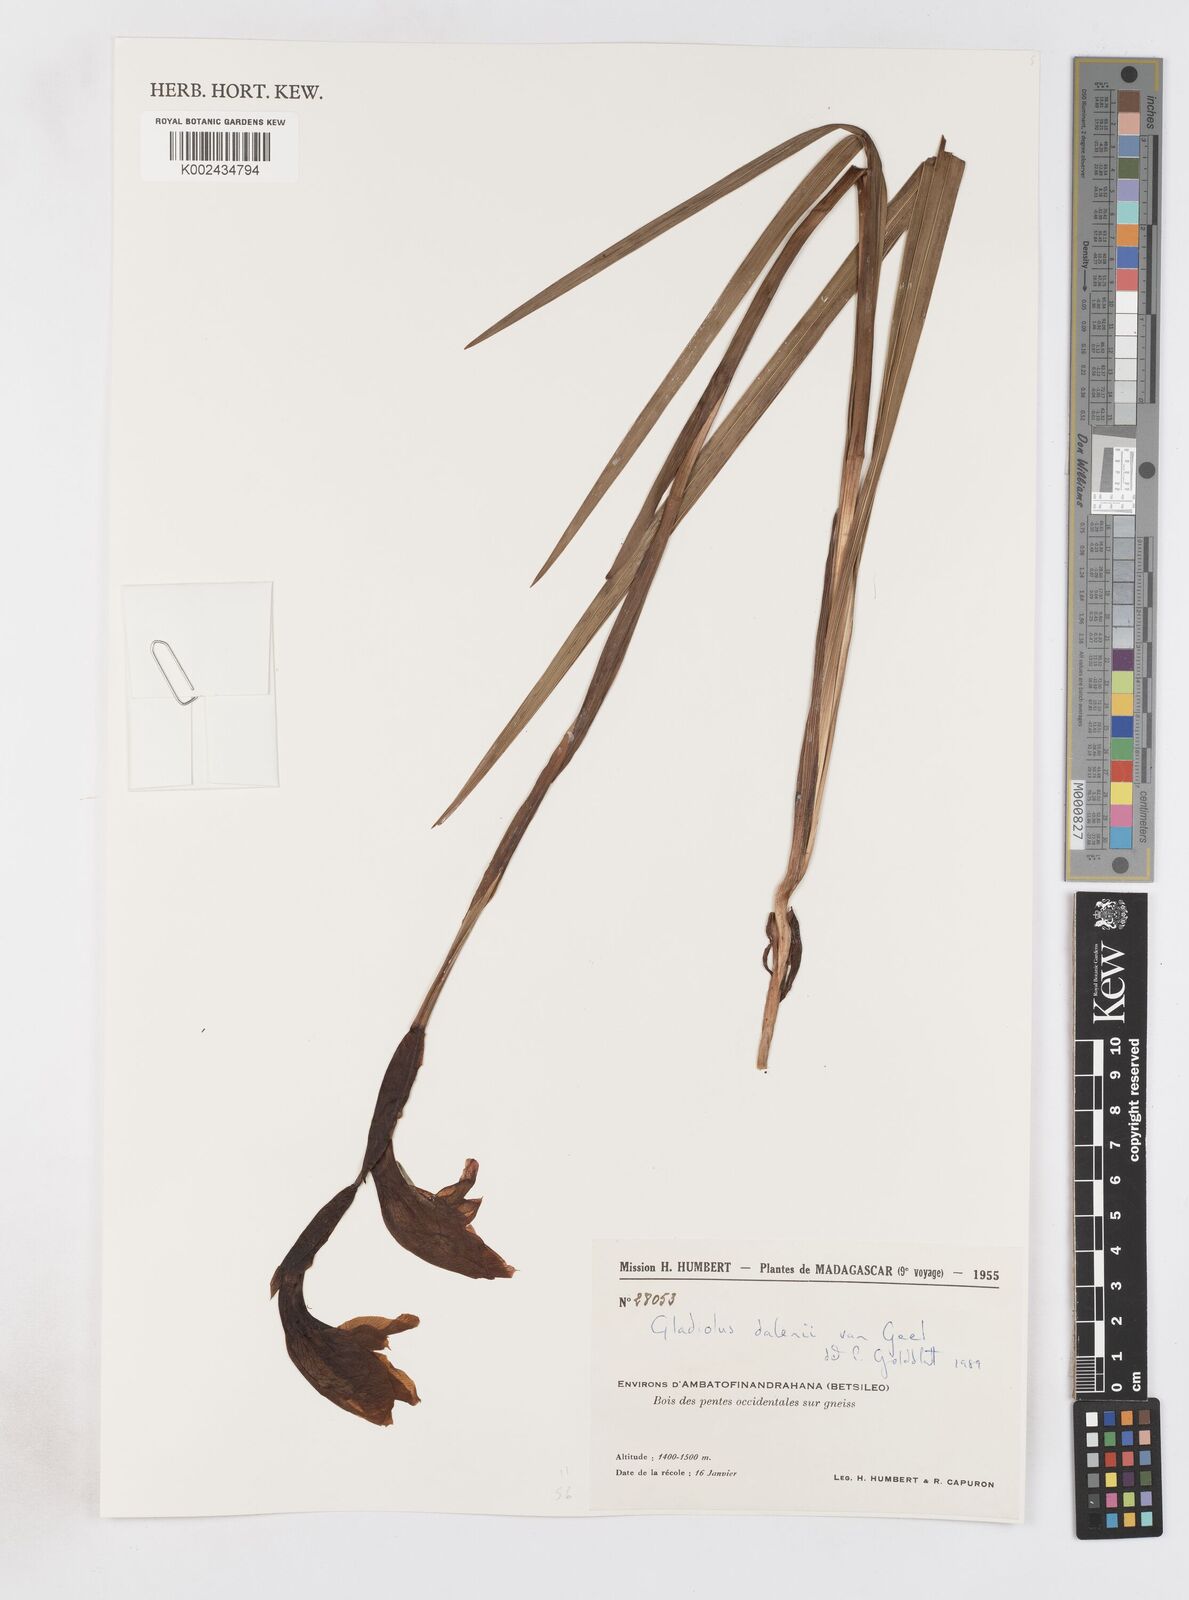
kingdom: Plantae
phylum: Tracheophyta
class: Liliopsida
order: Asparagales
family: Iridaceae
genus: Gladiolus
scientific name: Gladiolus dalenii
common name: Cornflag
